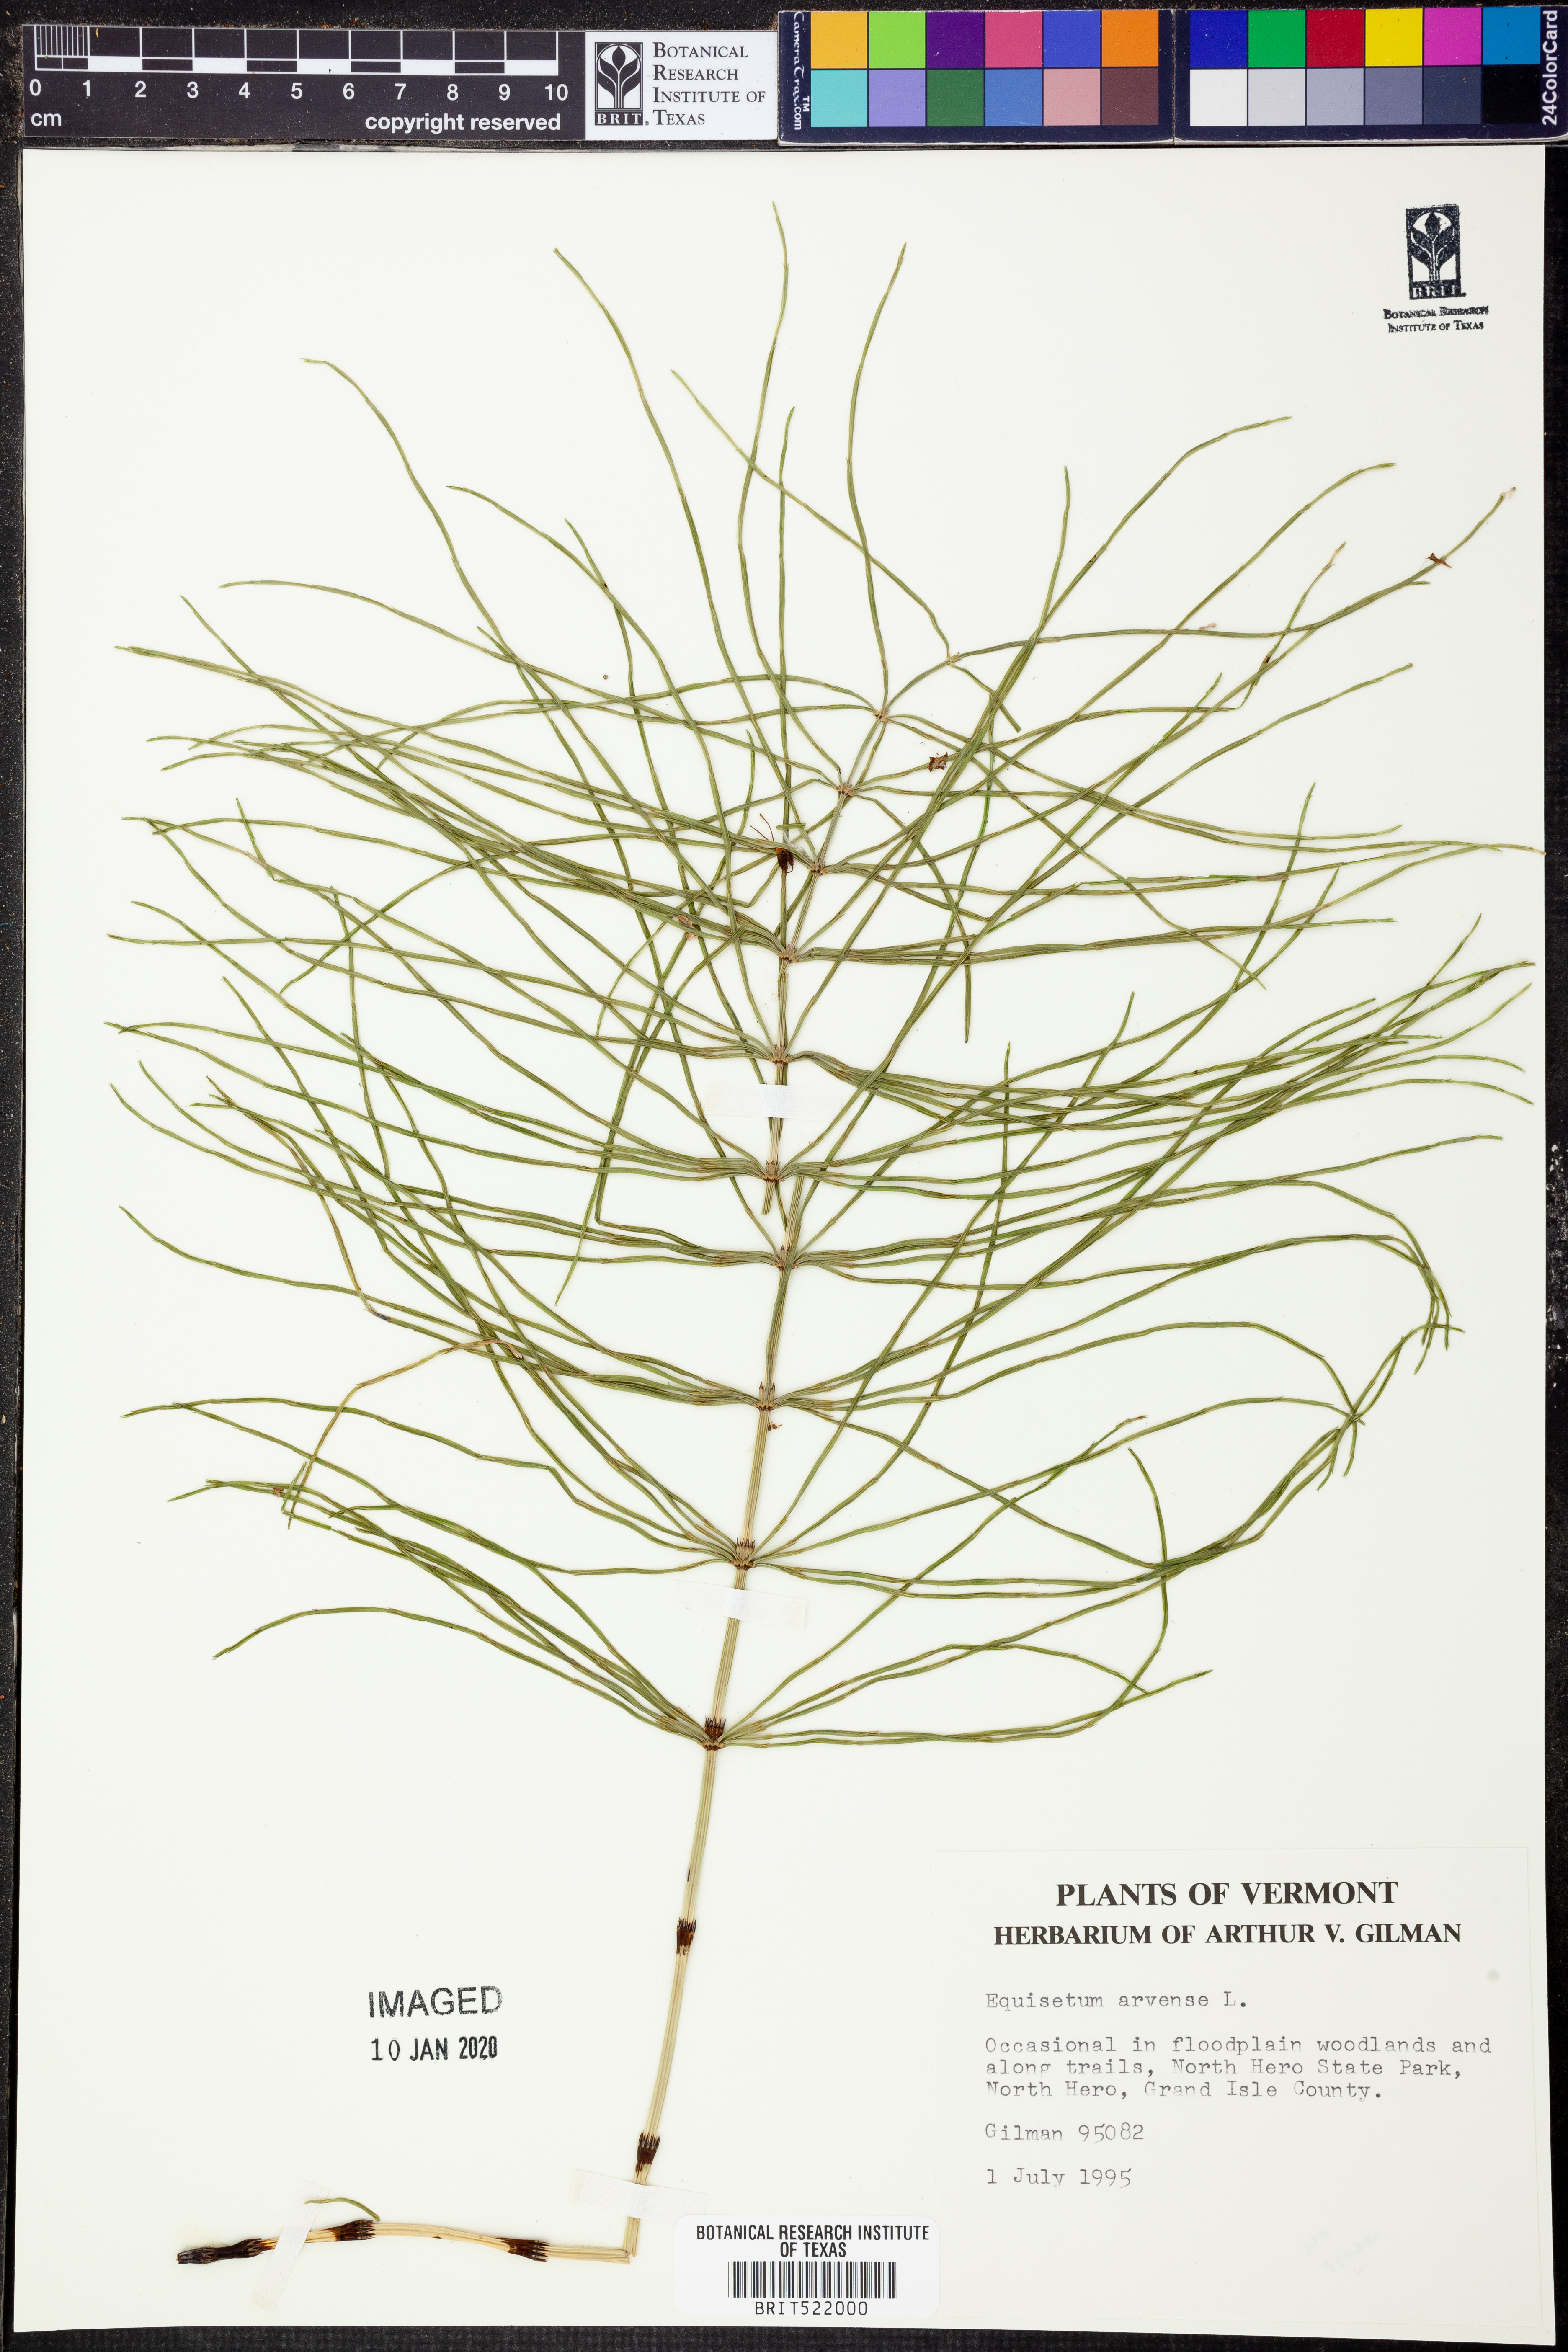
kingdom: Plantae
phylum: Tracheophyta
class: Polypodiopsida
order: Equisetales
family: Equisetaceae
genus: Equisetum
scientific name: Equisetum arvense
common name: Field horsetail
